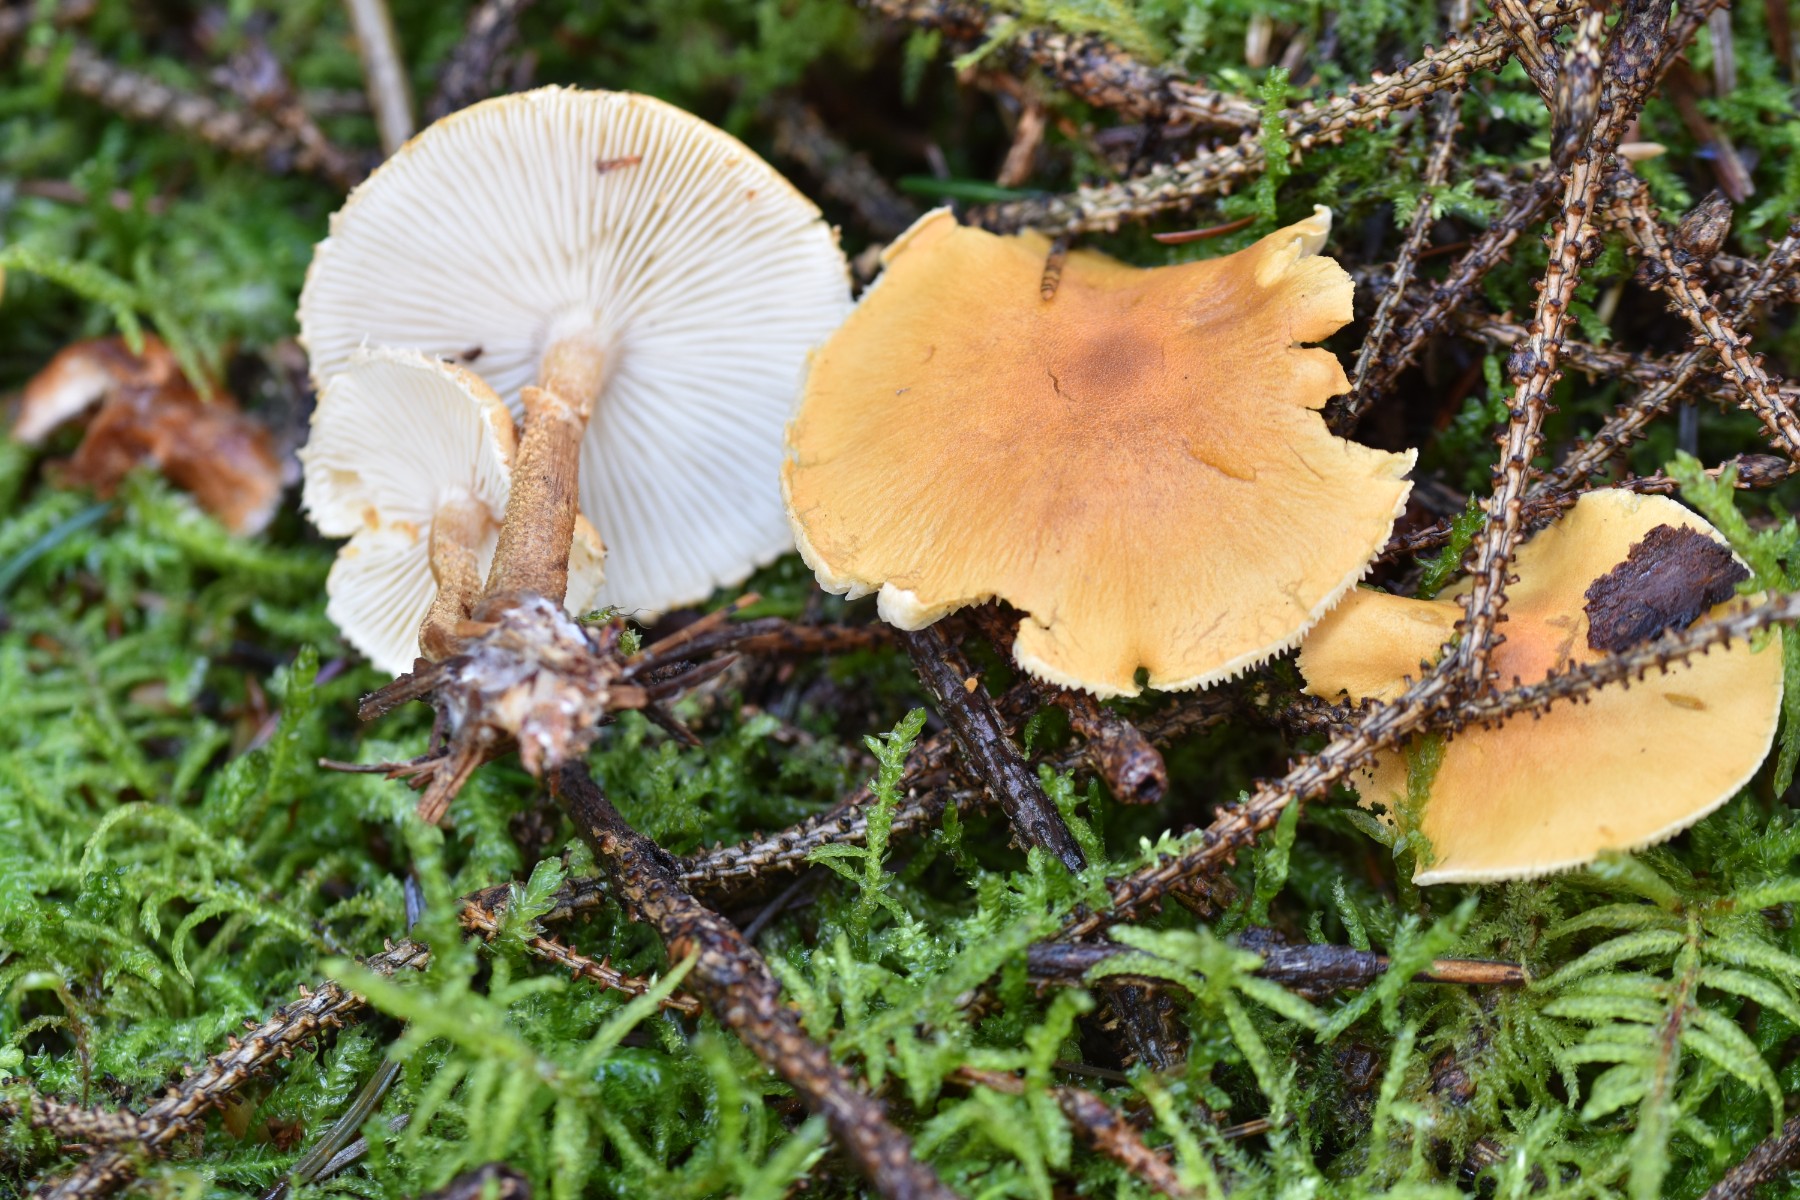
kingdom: Fungi
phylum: Basidiomycota
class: Agaricomycetes
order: Agaricales
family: Tricholomataceae
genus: Cystoderma
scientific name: Cystoderma amianthinum
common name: okkergul grynhat
